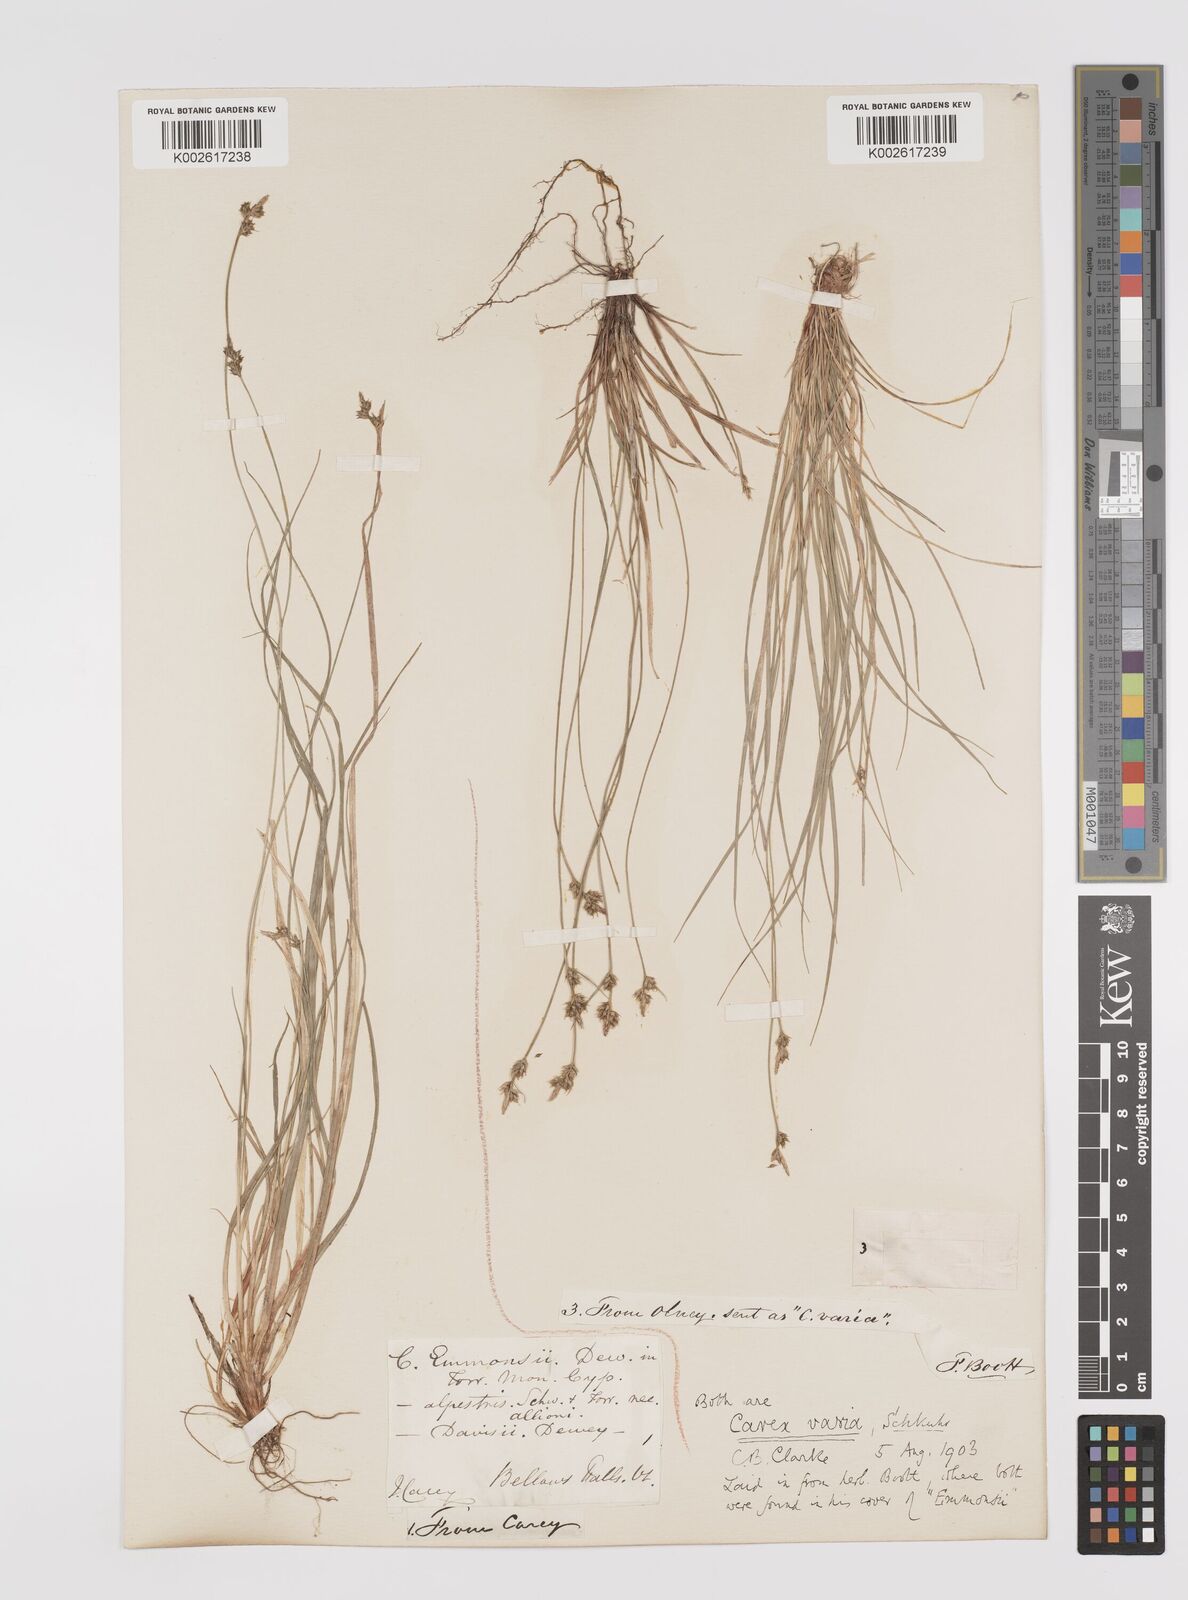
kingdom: Plantae
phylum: Tracheophyta
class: Liliopsida
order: Poales
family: Cyperaceae
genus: Carex
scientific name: Carex albicans
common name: Bellow-beaked sedge
